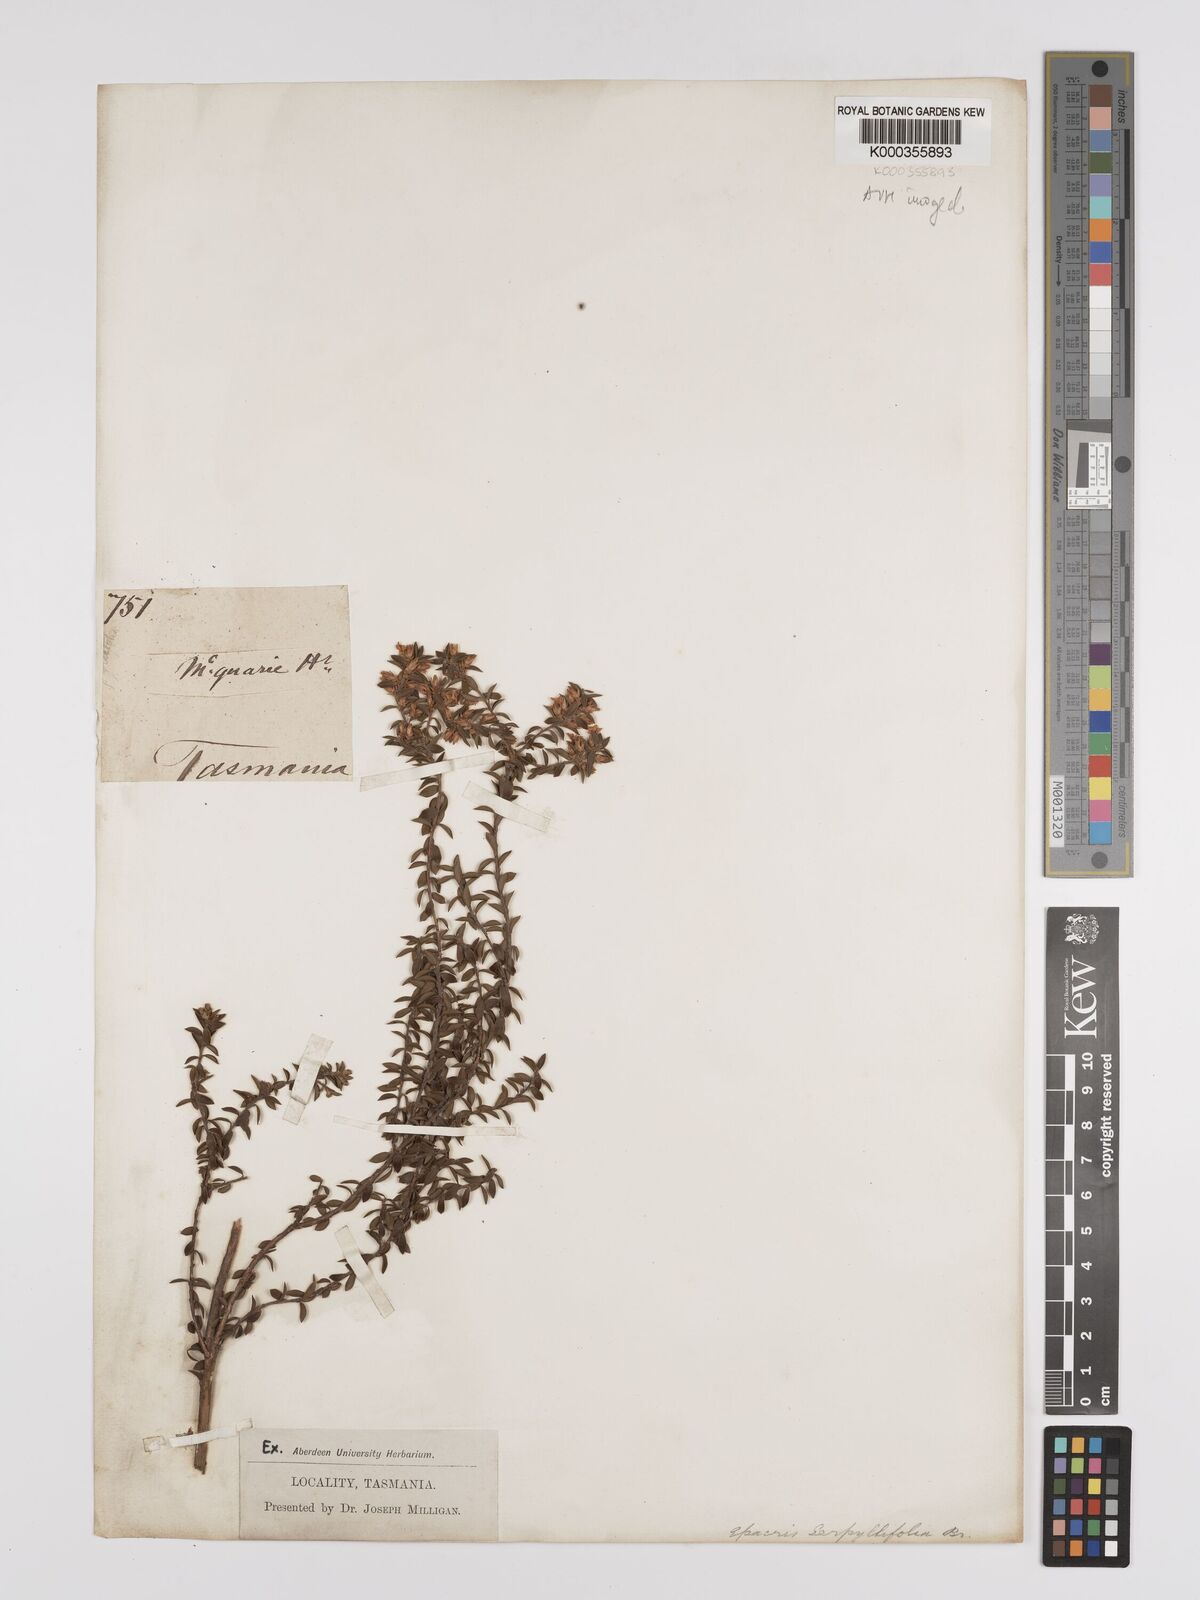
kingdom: Plantae
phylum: Tracheophyta
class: Magnoliopsida
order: Ericales
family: Ericaceae
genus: Epacris
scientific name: Epacris serpyllifolia
